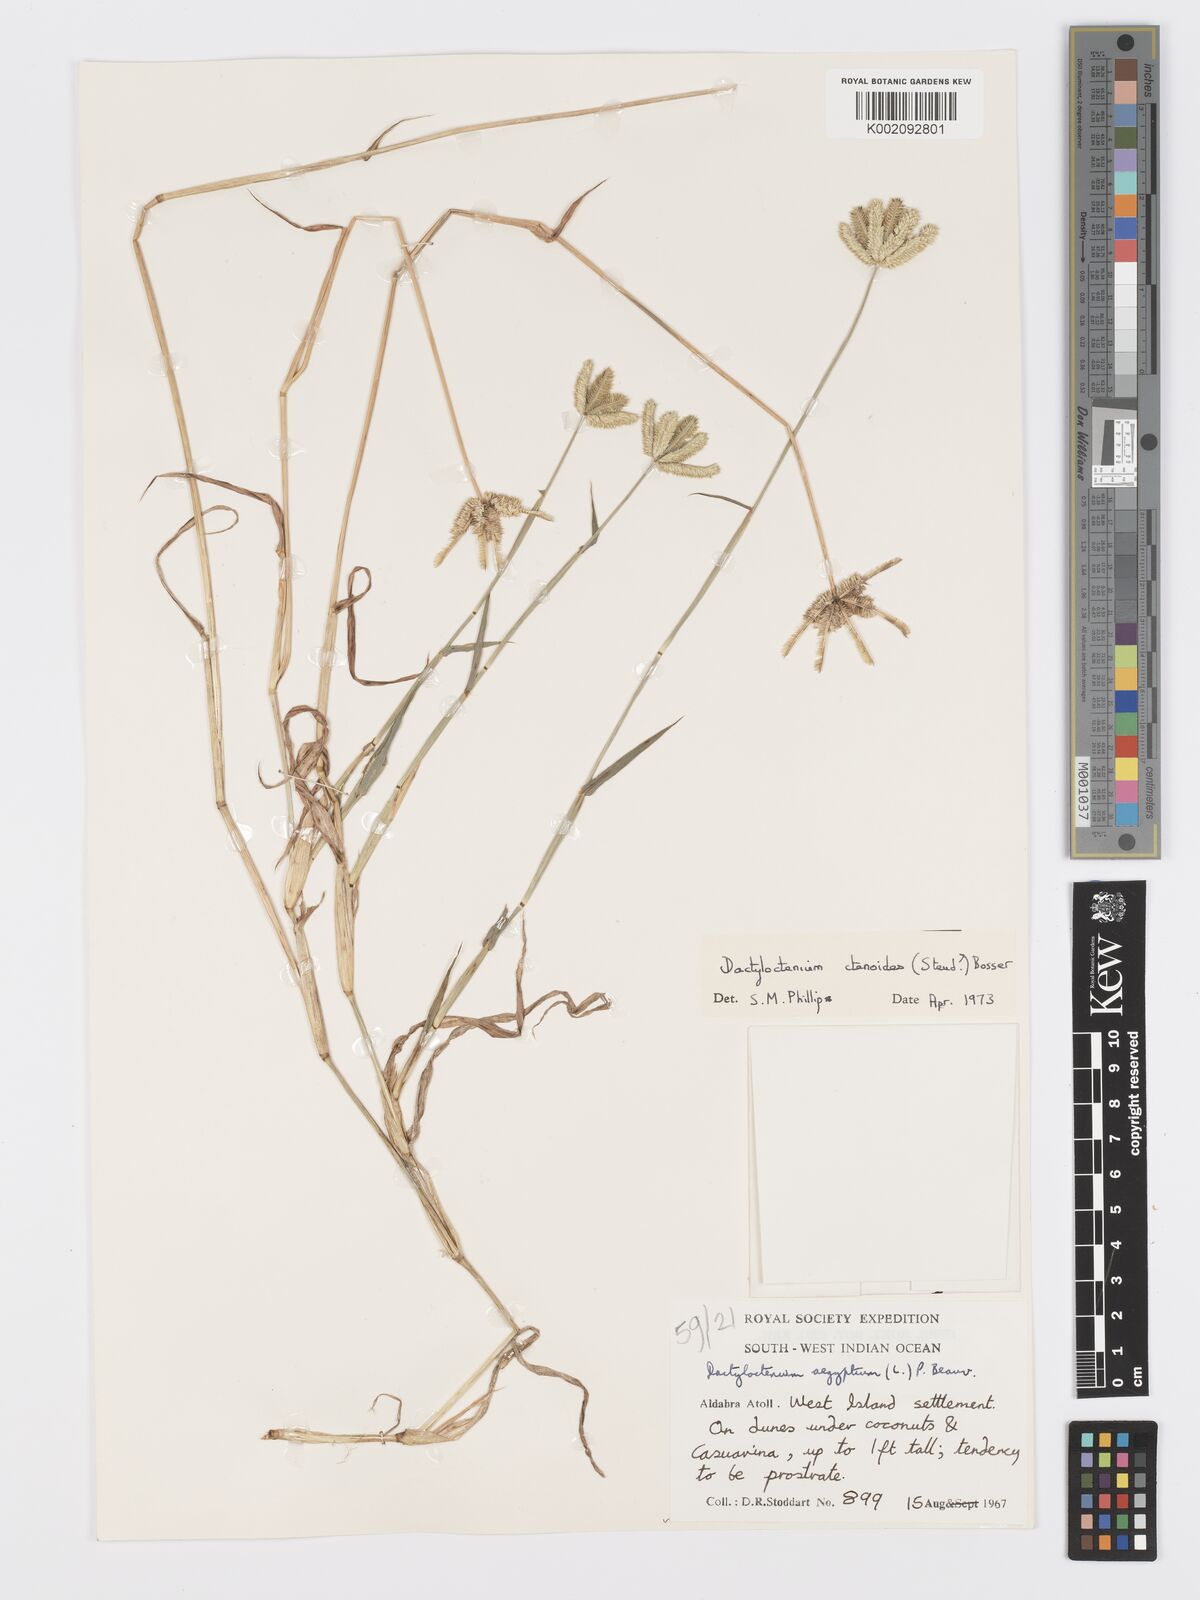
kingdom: Plantae
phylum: Tracheophyta
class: Liliopsida
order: Poales
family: Poaceae
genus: Dactyloctenium
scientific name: Dactyloctenium ctenoides
